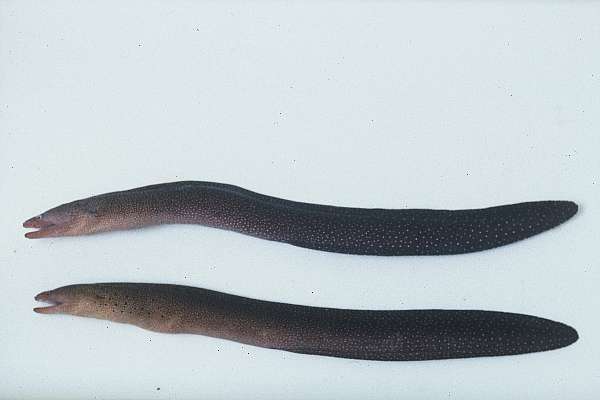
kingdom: Animalia
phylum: Chordata
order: Anguilliformes
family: Muraenidae
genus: Gymnothorax
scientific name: Gymnothorax eurostus
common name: Stout moray
